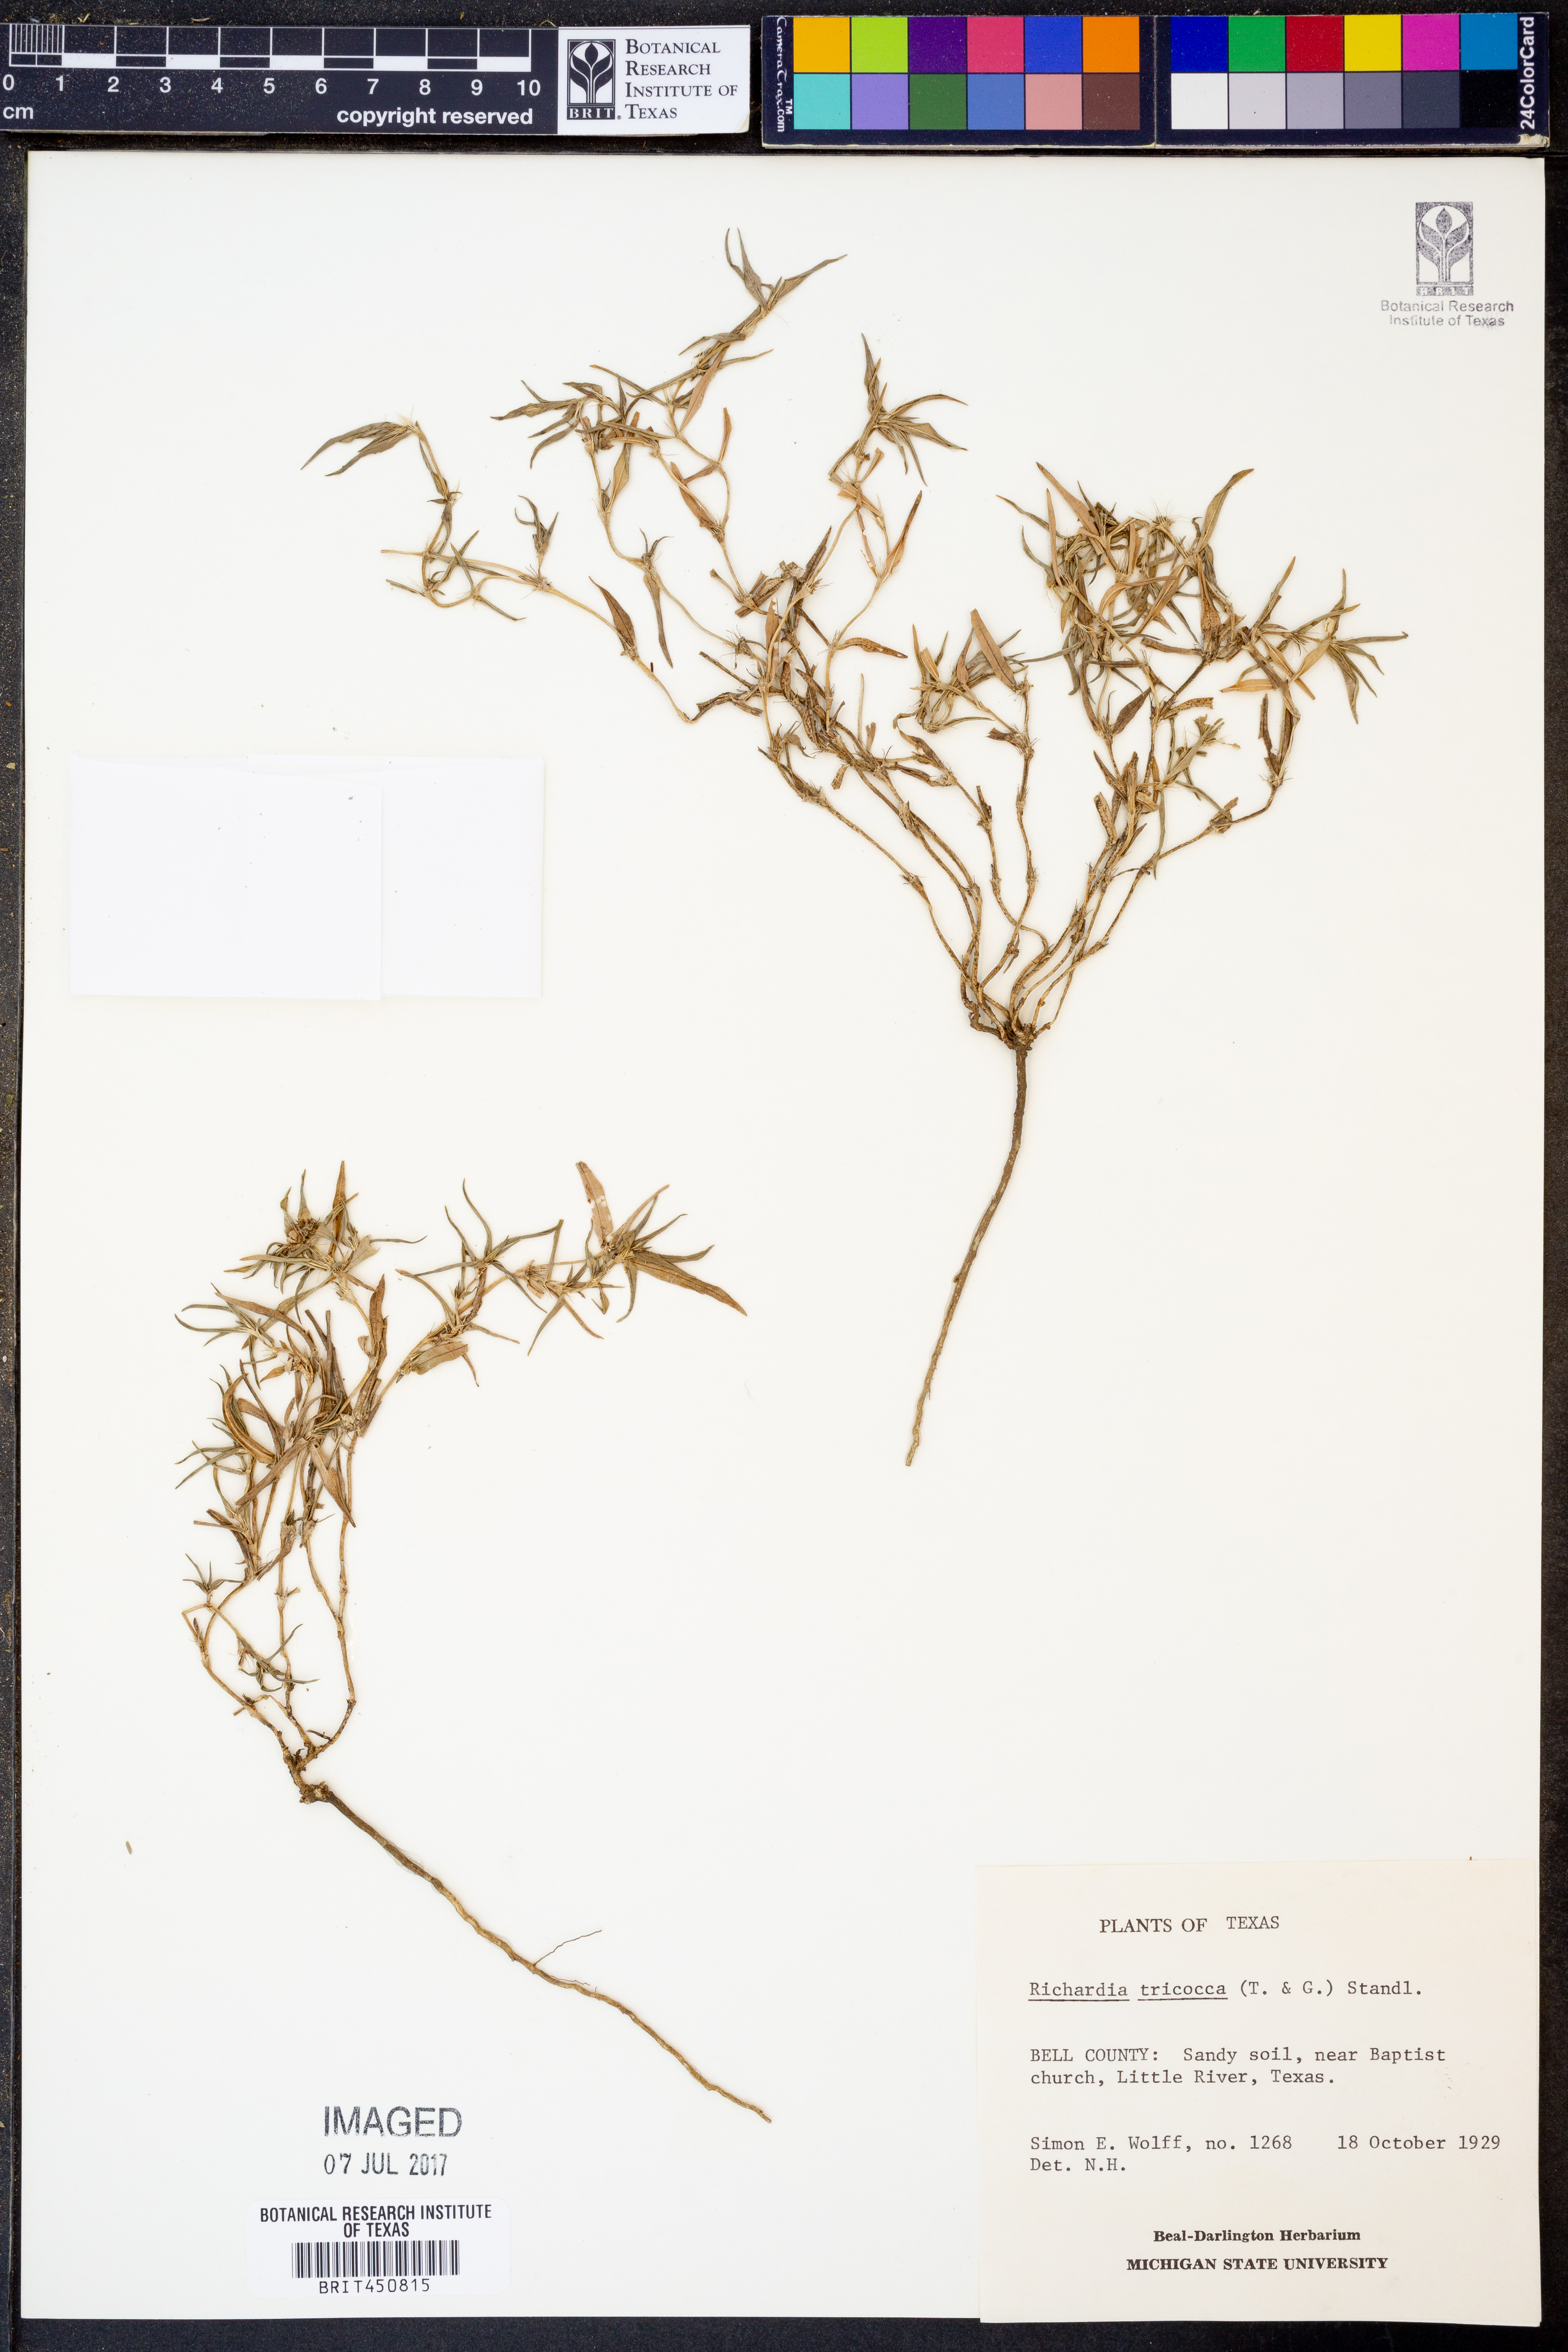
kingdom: Plantae
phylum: Tracheophyta
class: Magnoliopsida
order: Gentianales
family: Rubiaceae
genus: Richardia
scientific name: Richardia tricocca
